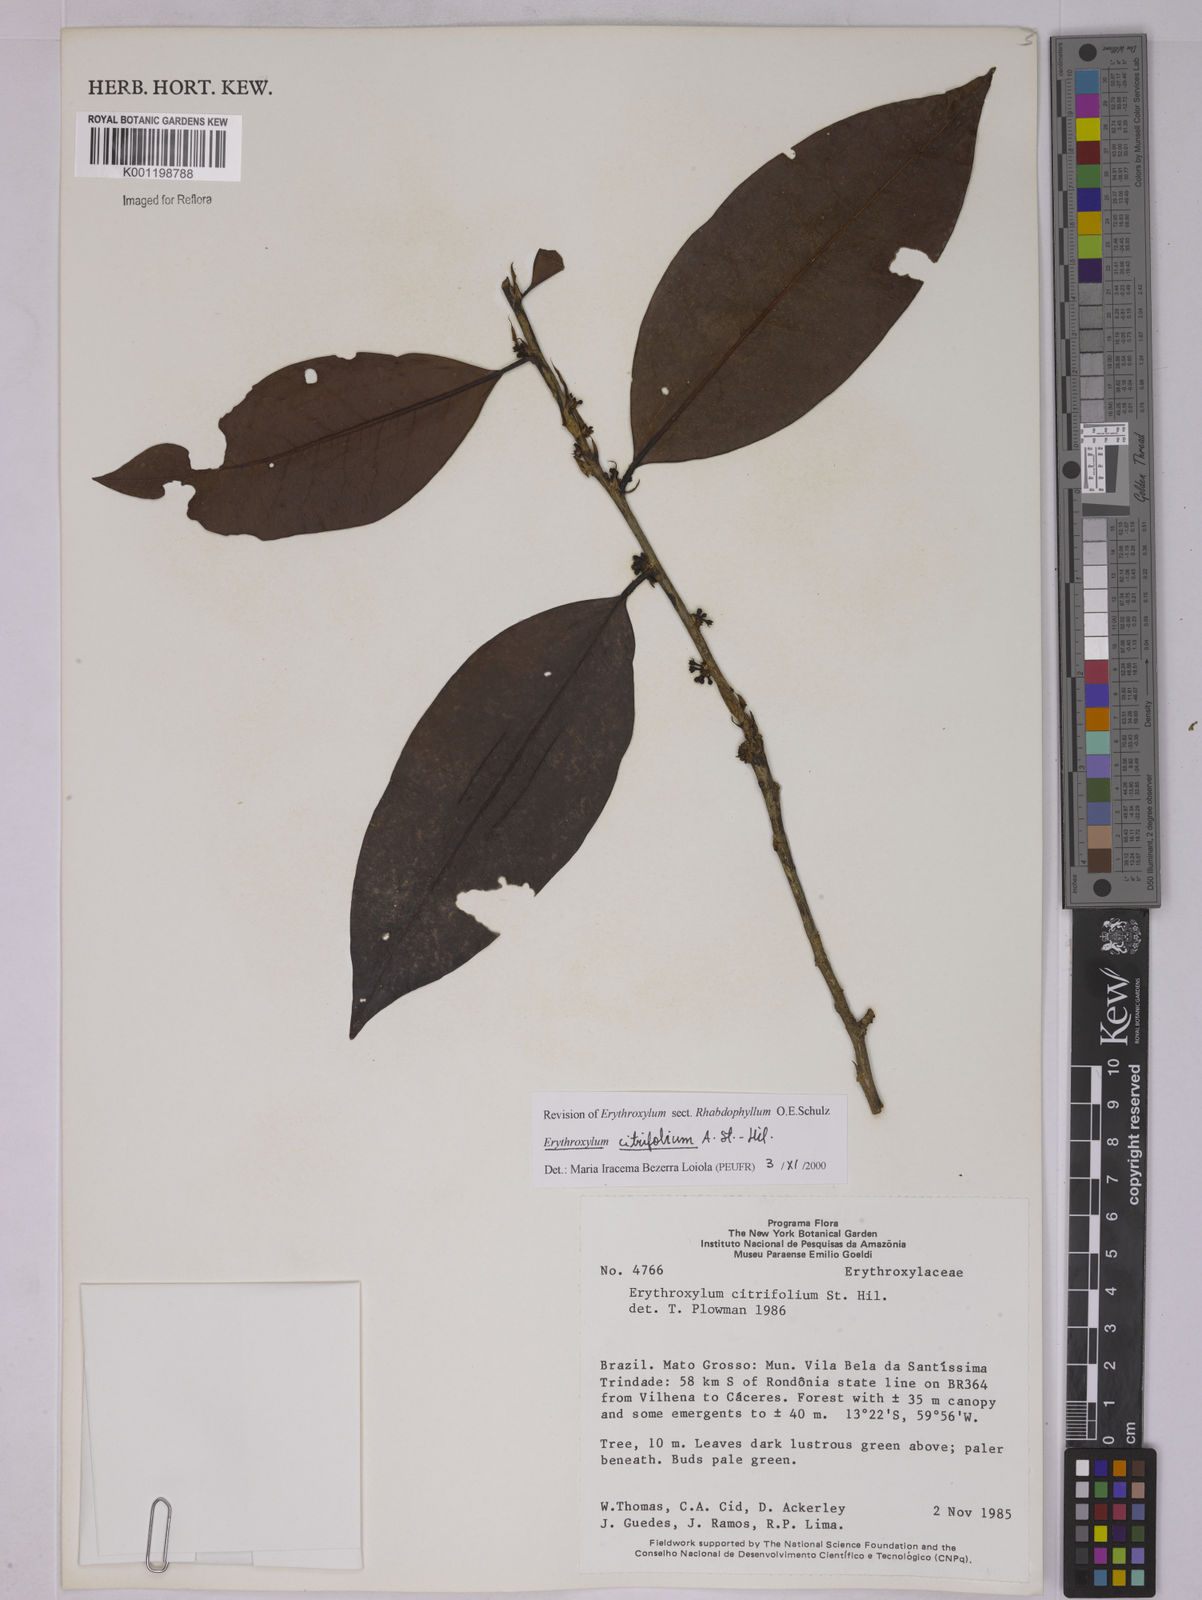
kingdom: Plantae
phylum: Tracheophyta
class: Magnoliopsida
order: Malpighiales
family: Erythroxylaceae
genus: Erythroxylum
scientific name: Erythroxylum citrifolium
